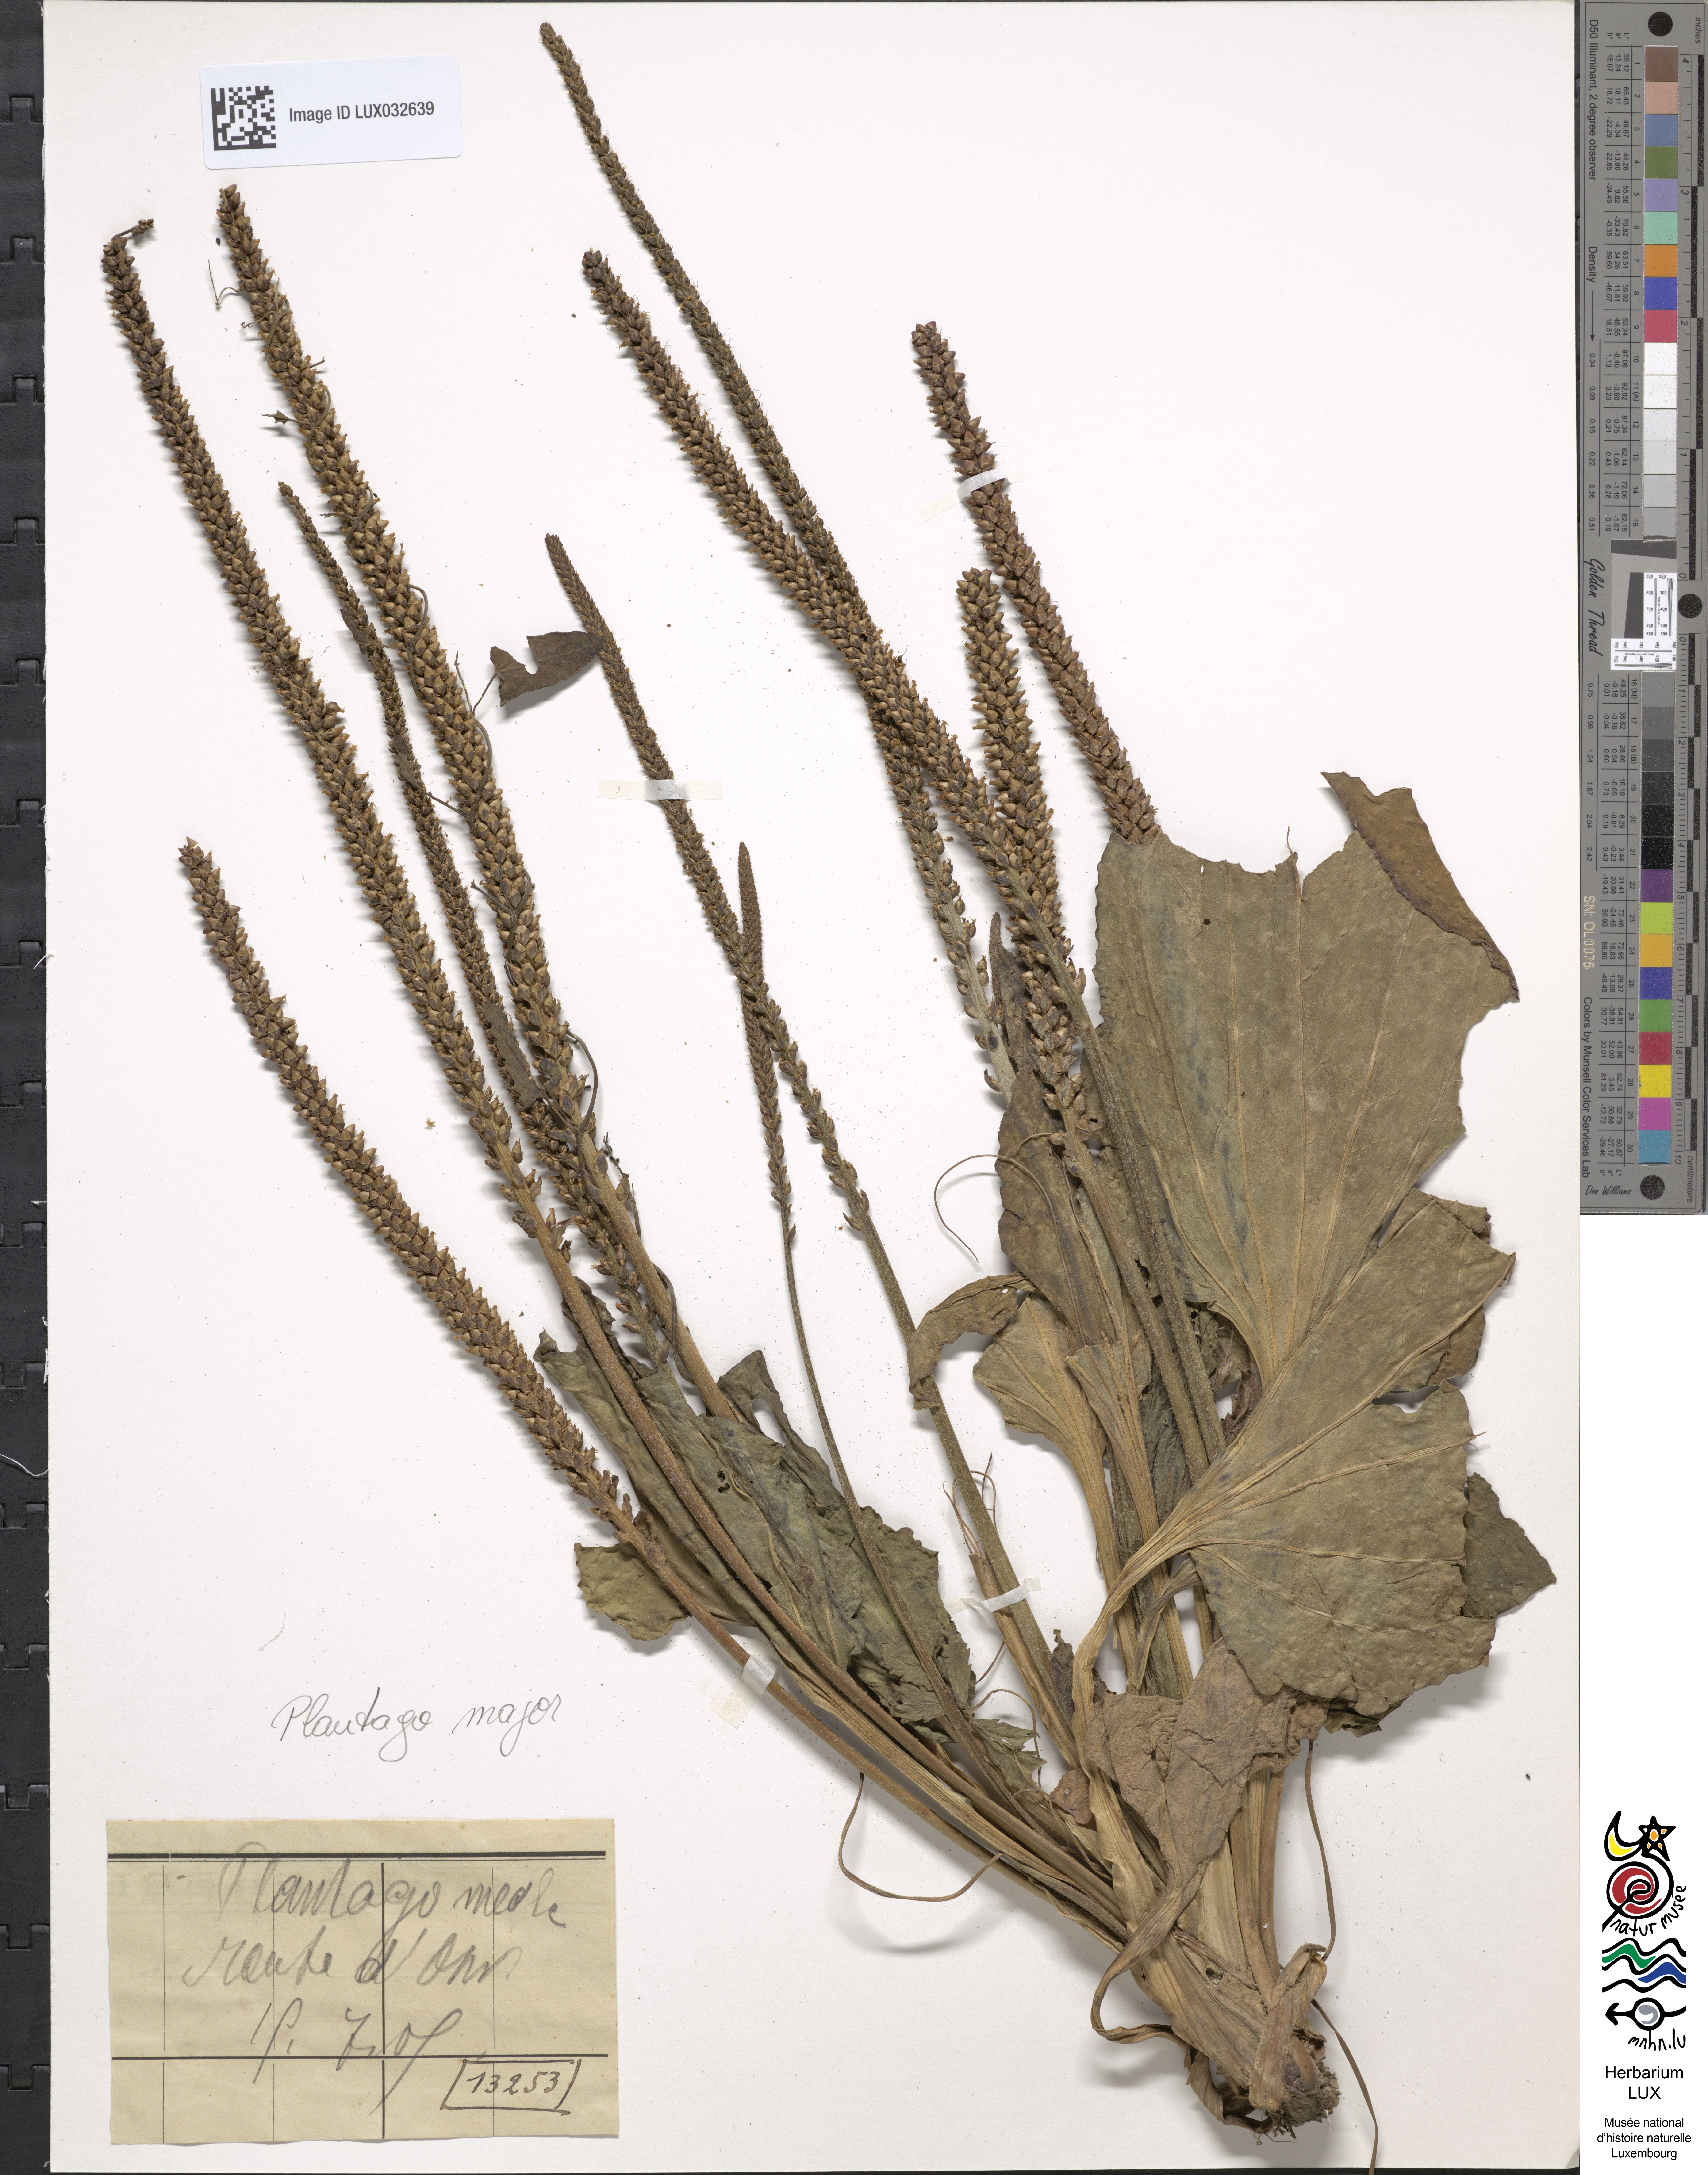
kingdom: Plantae
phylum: Tracheophyta
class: Magnoliopsida
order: Lamiales
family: Plantaginaceae
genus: Plantago
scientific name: Plantago media
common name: Hoary plantain
